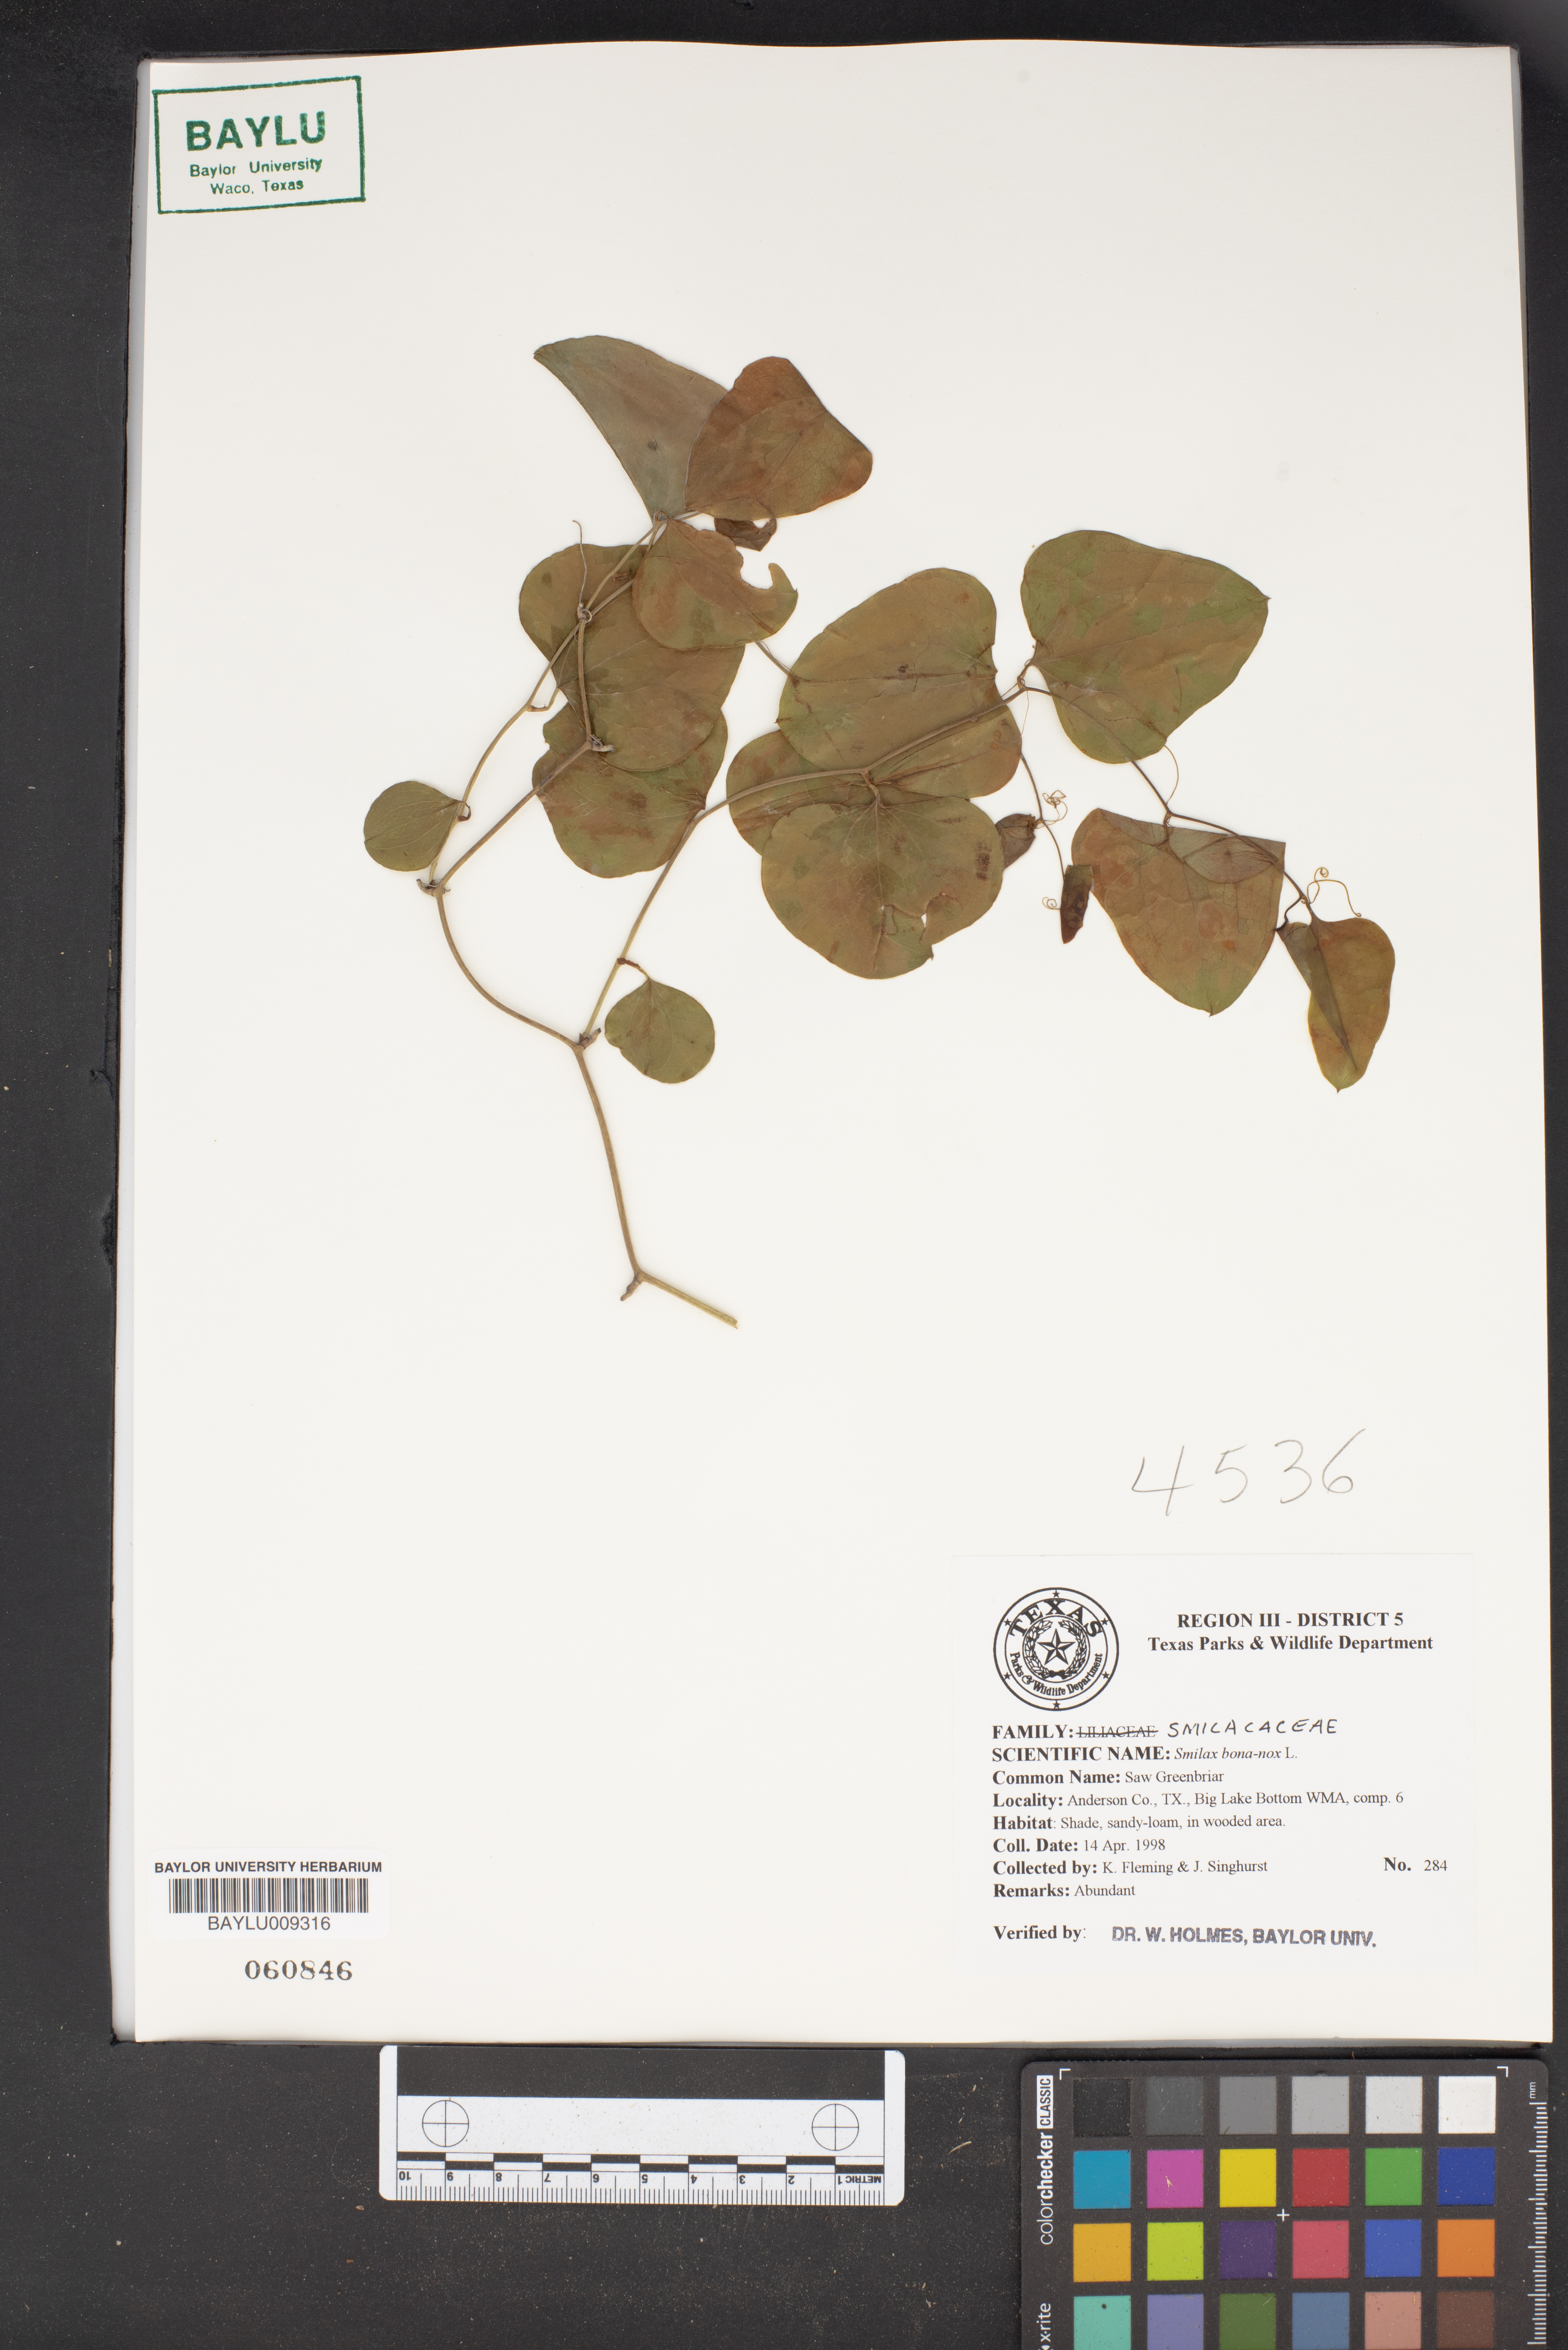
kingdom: Plantae
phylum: Tracheophyta
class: Liliopsida
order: Liliales
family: Smilacaceae
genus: Smilax
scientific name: Smilax bona-nox
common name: Catbrier
